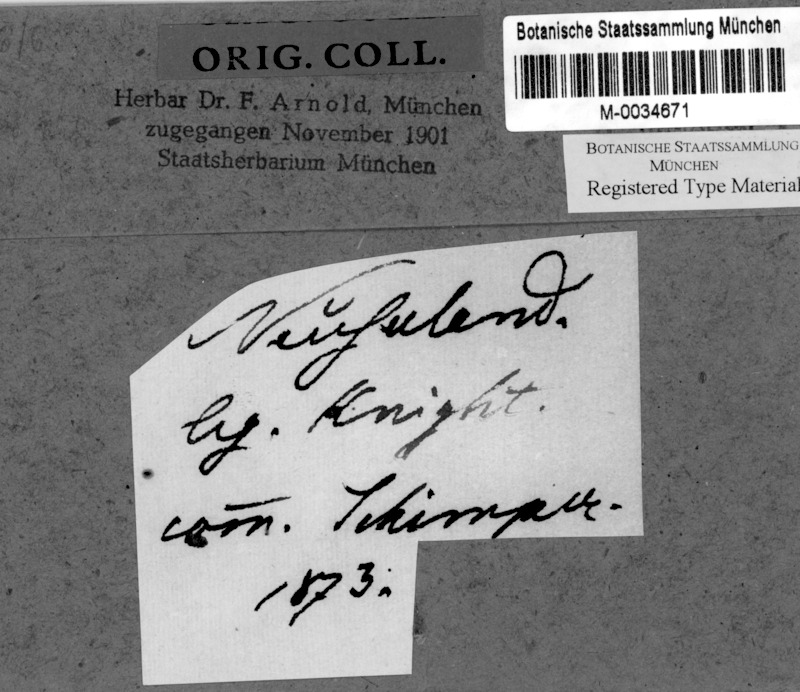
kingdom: Fungi
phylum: Ascomycota
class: Lecanoromycetes
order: Ostropales
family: Graphidaceae
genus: Thelotrema
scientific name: Thelotrema lepadinum
